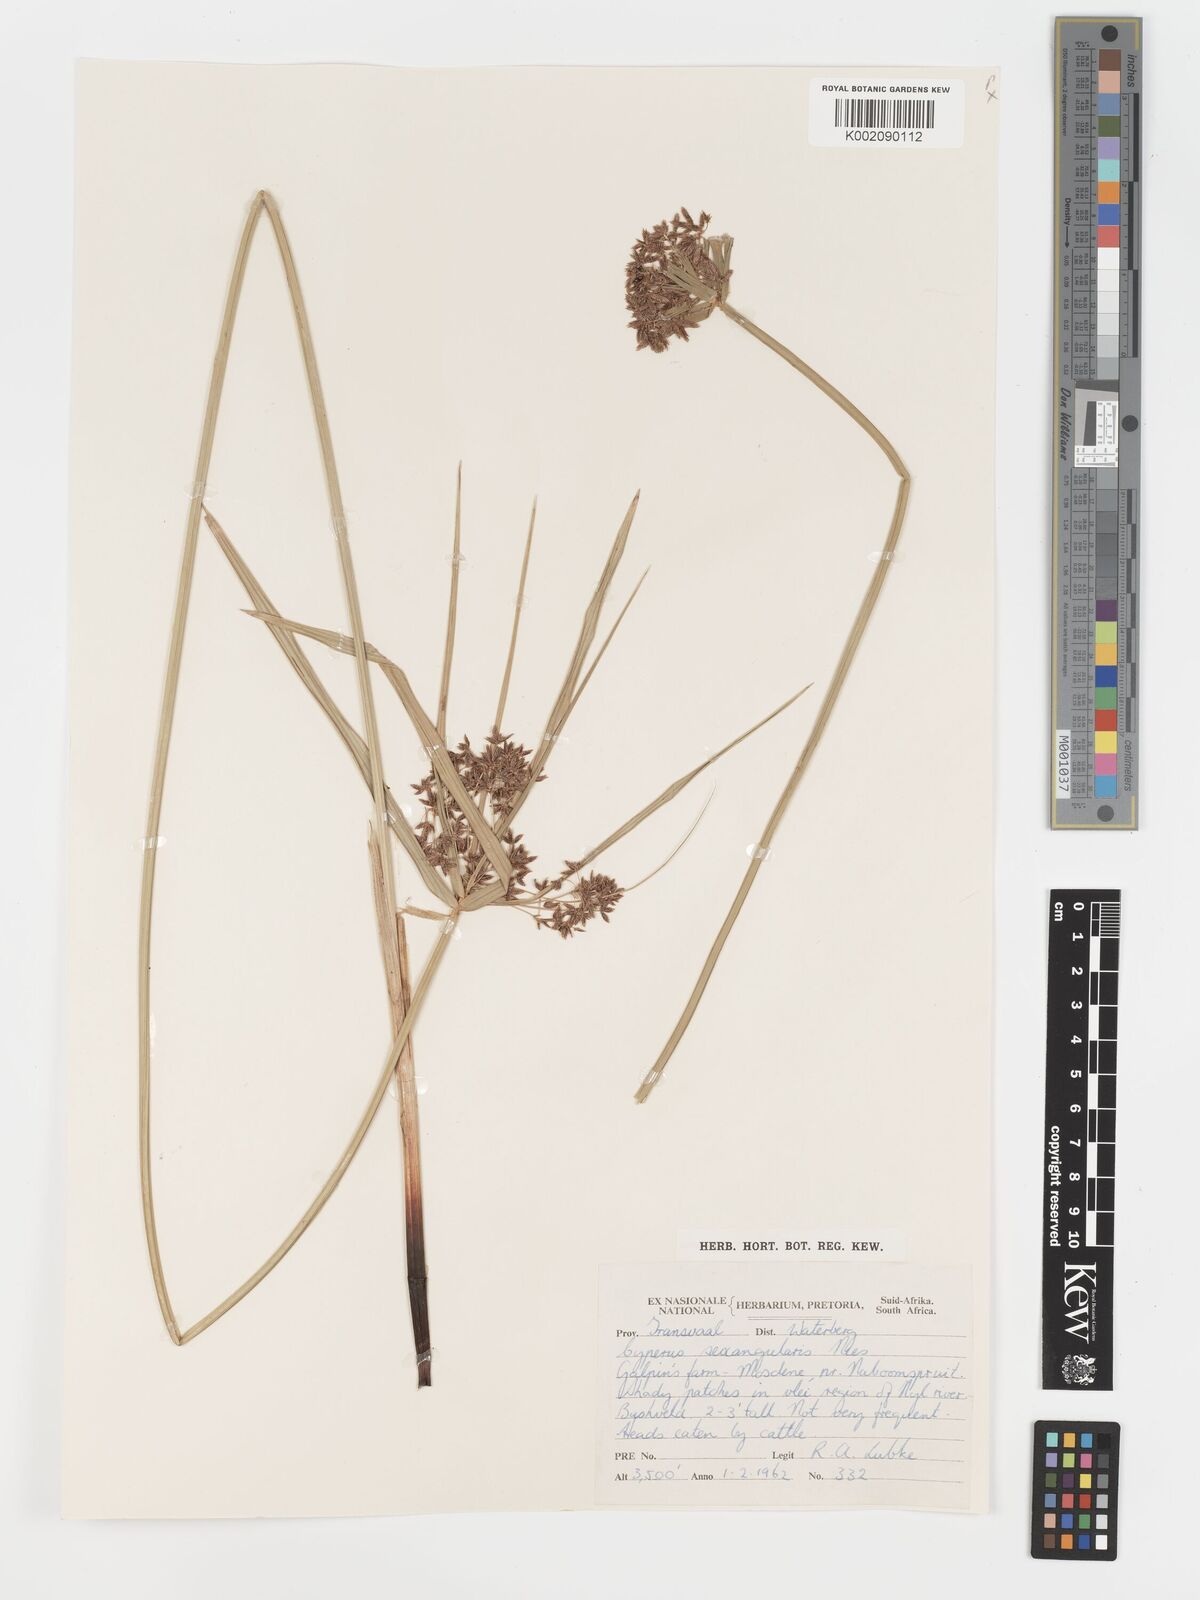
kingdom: Plantae
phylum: Tracheophyta
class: Liliopsida
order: Poales
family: Cyperaceae
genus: Cyperus
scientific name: Cyperus sexangularis
